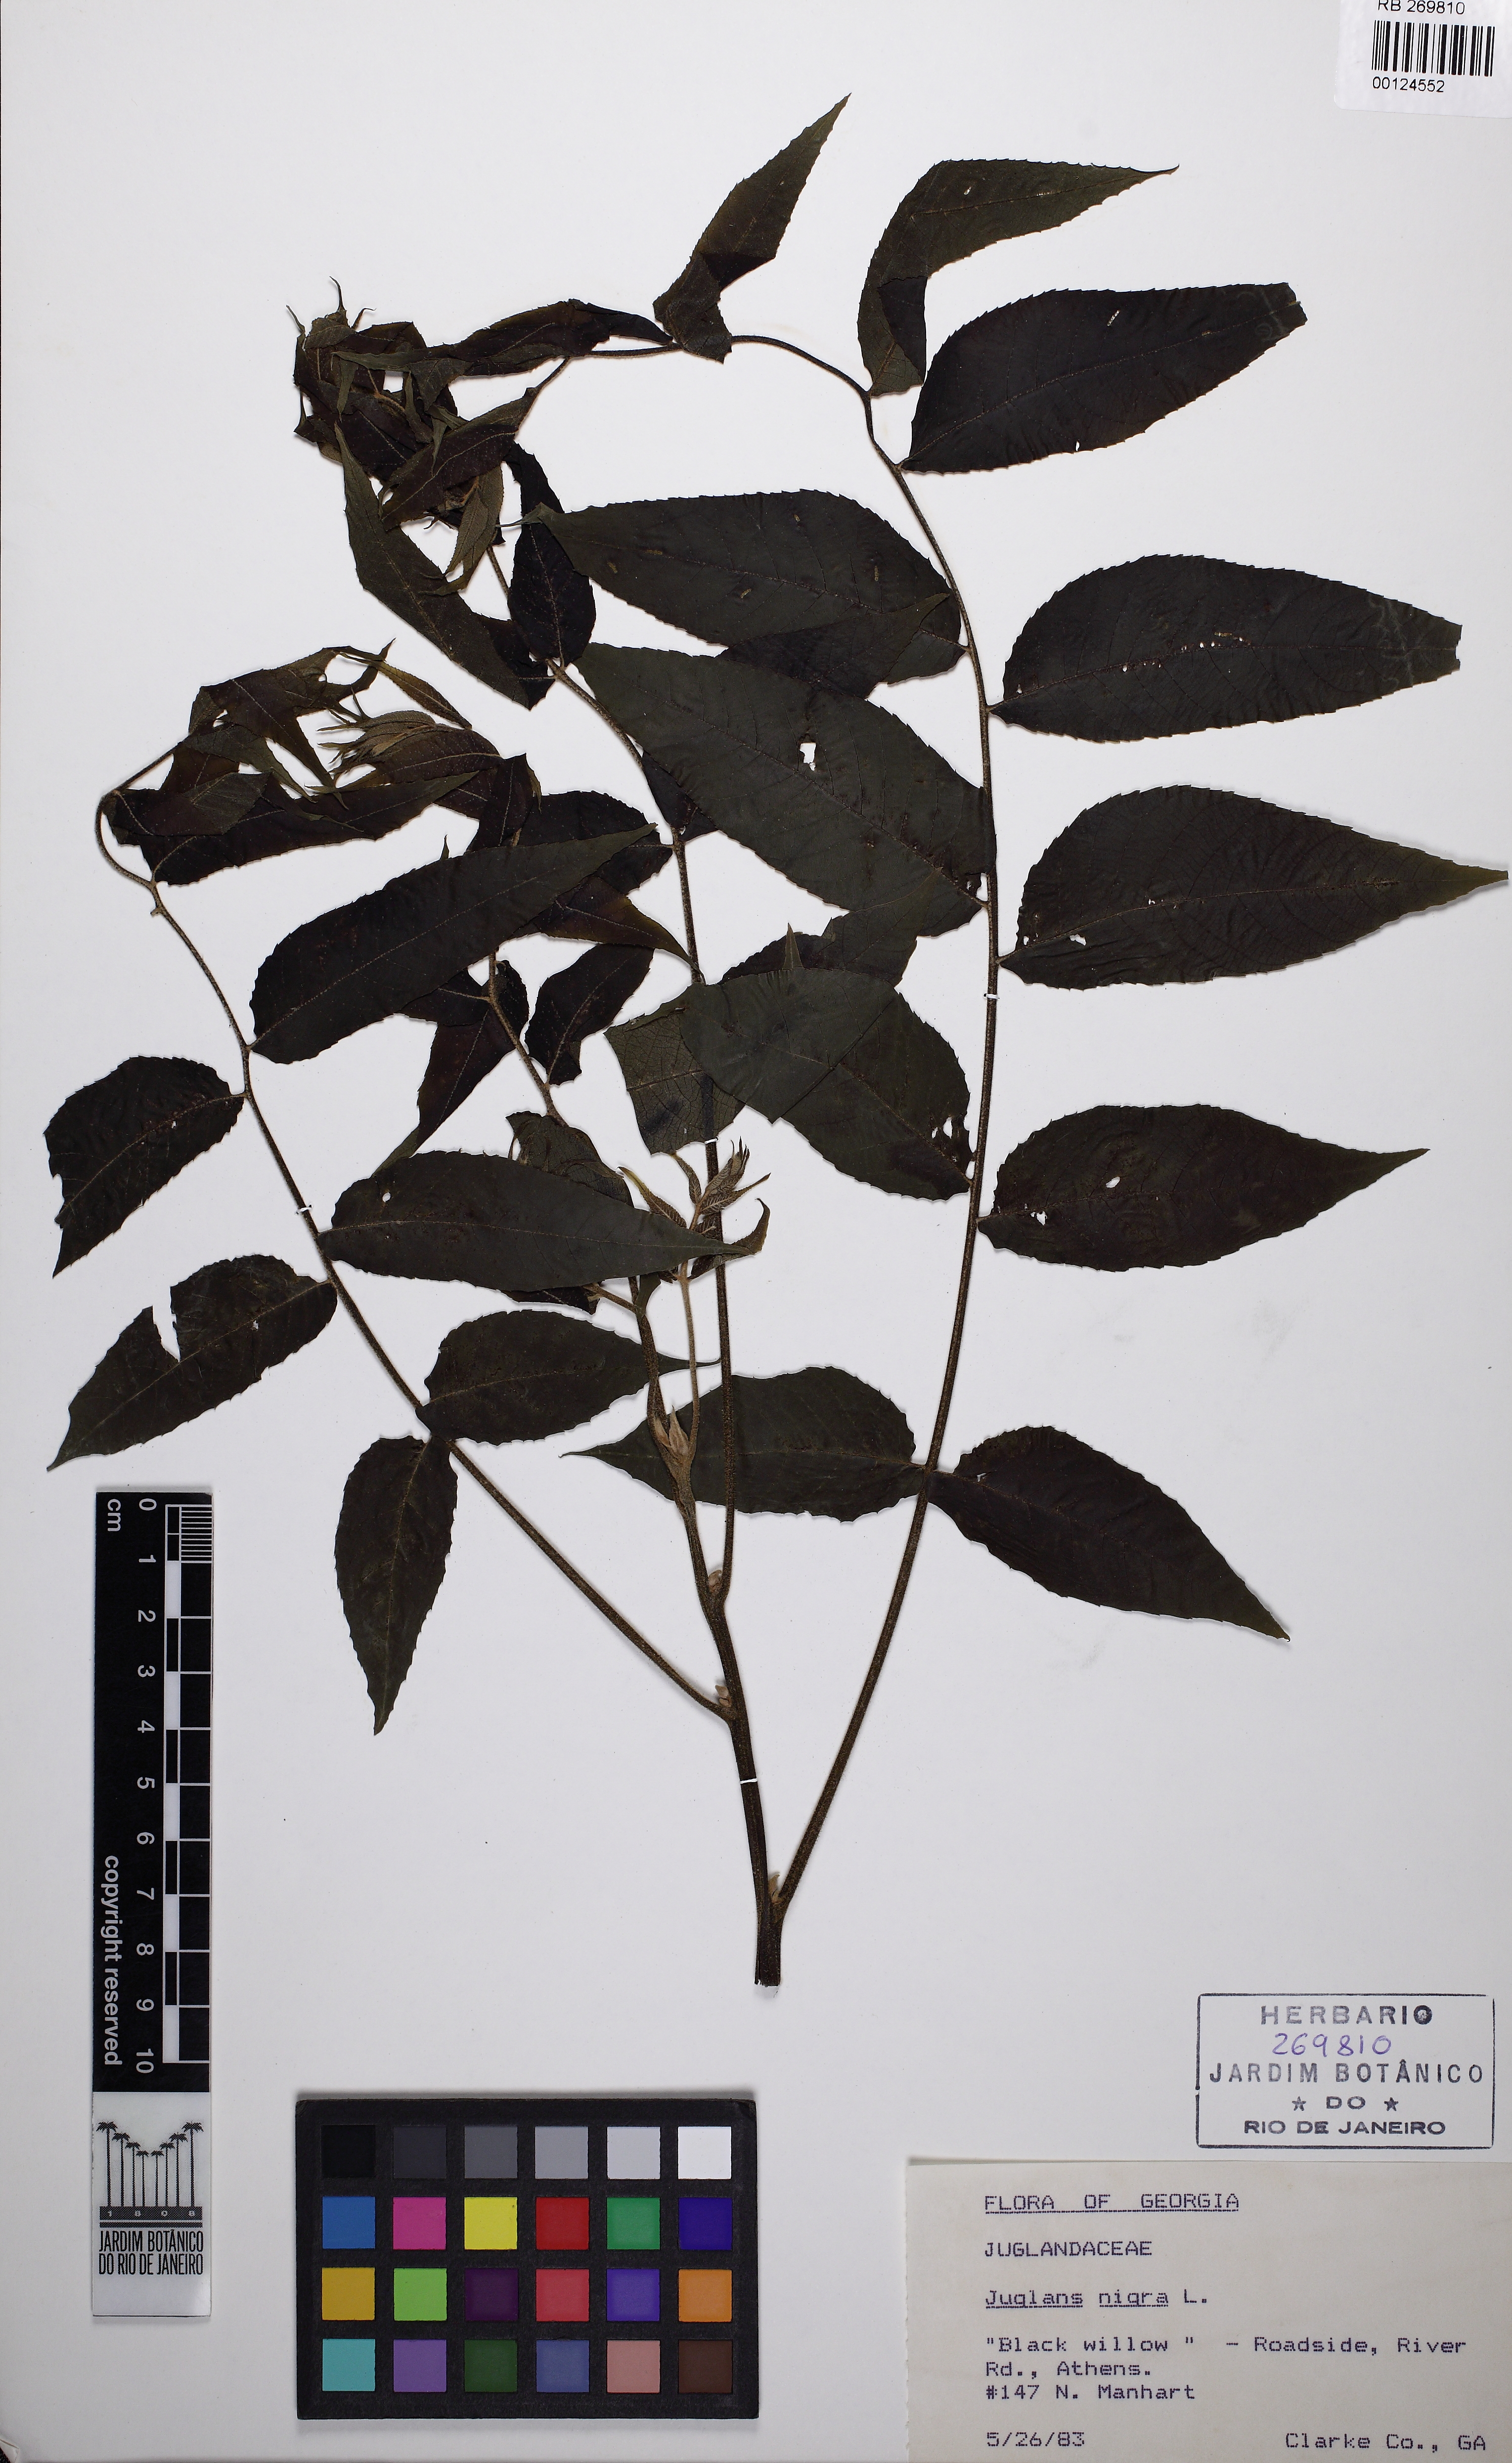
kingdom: Plantae
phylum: Tracheophyta
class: Magnoliopsida
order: Fagales
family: Juglandaceae
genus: Juglans
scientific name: Juglans
